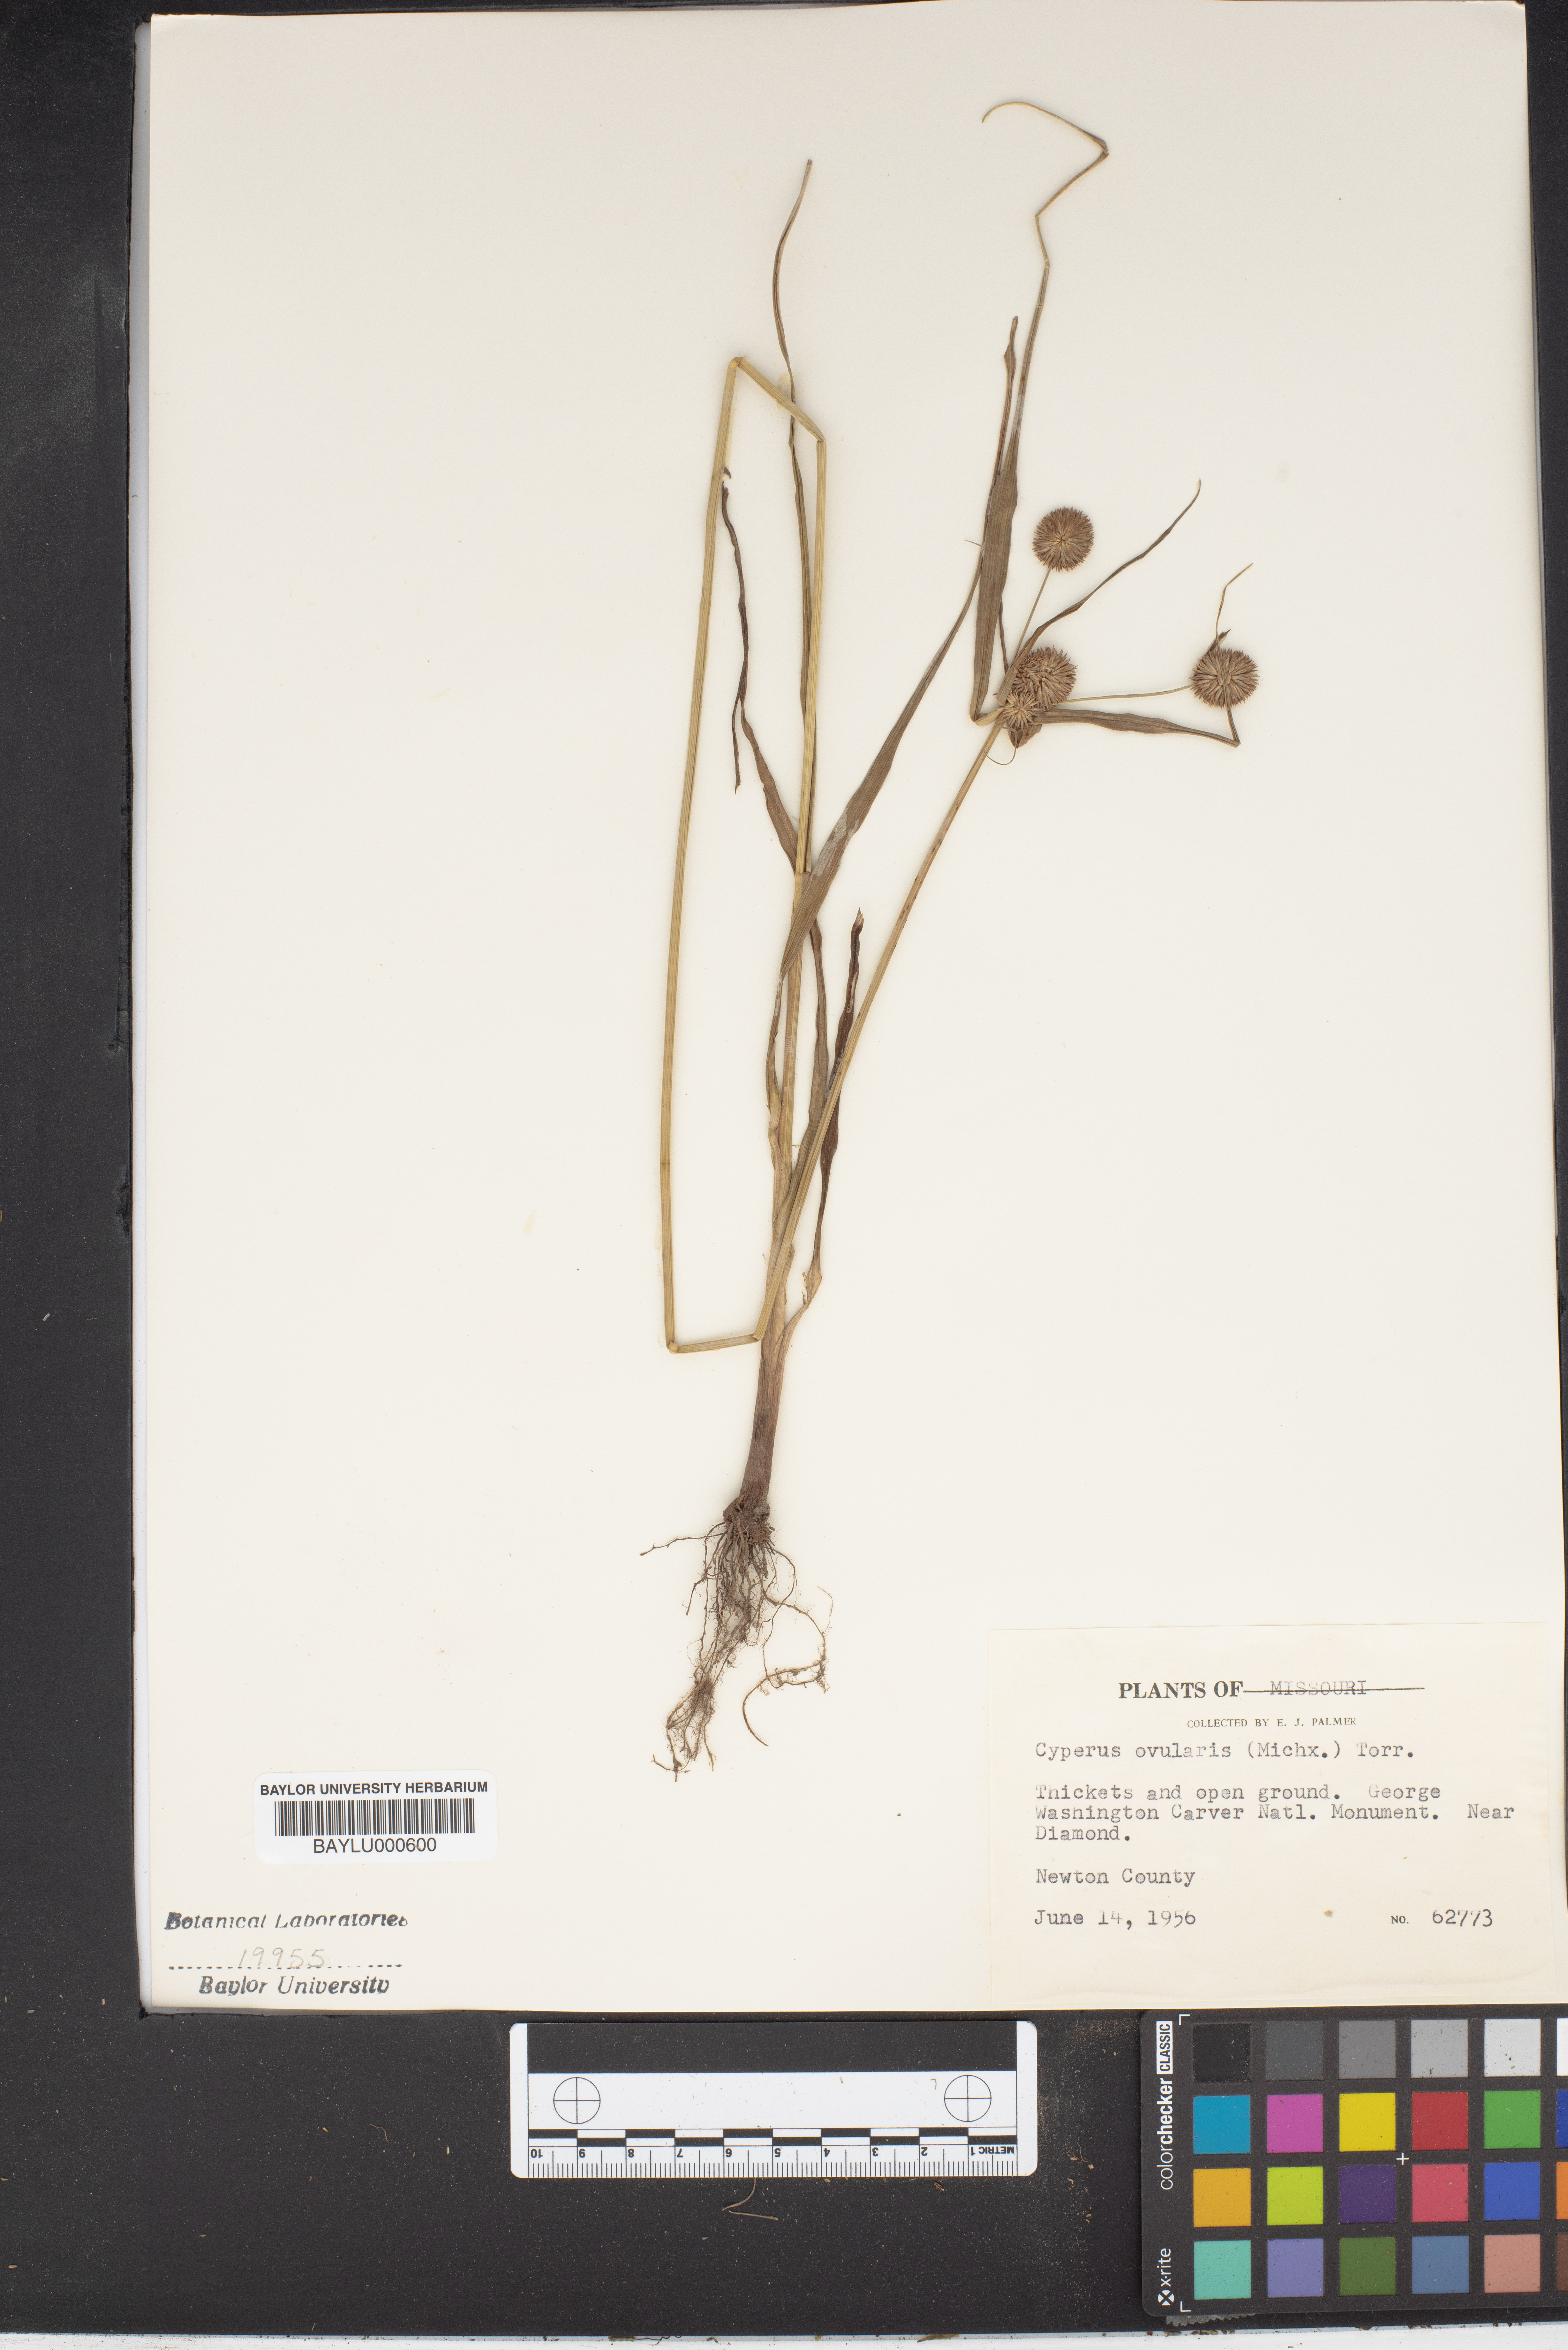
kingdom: Plantae
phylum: Tracheophyta
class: Liliopsida
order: Poales
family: Cyperaceae
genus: Cyperus
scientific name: Cyperus echinatus
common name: Teasel sedge
